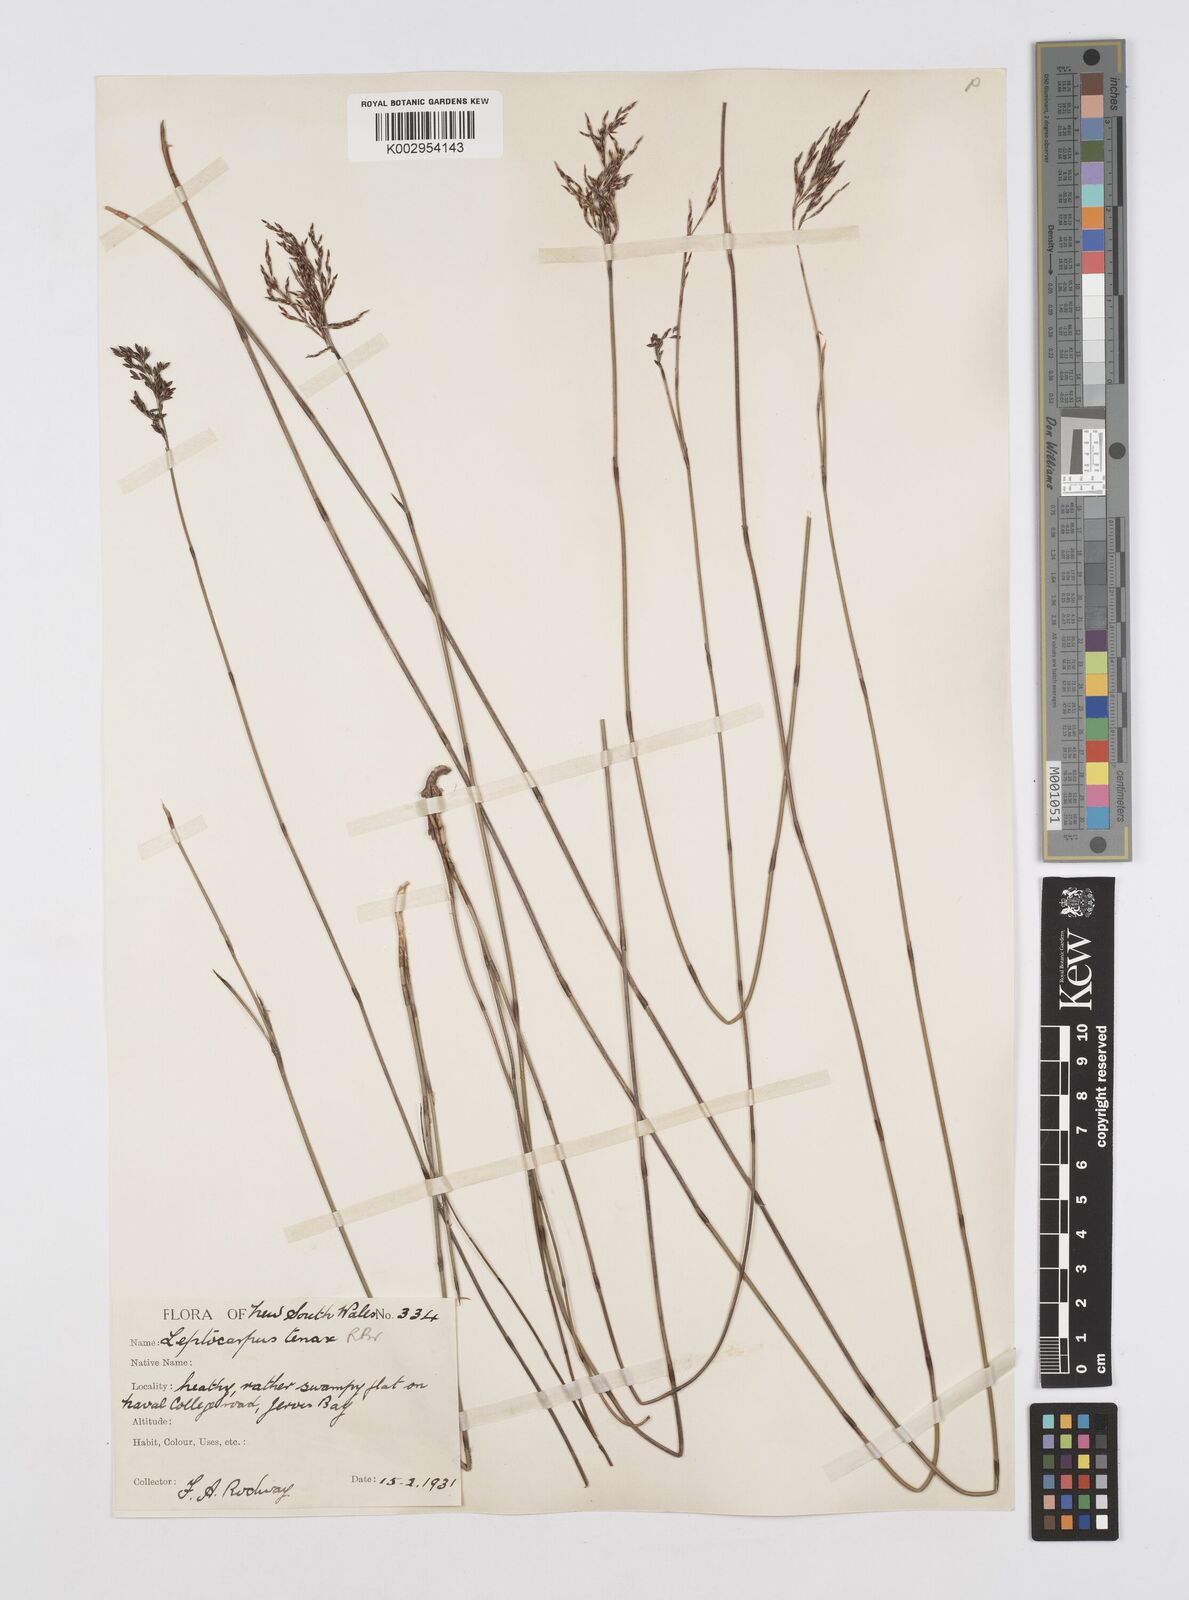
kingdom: Plantae
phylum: Tracheophyta
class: Liliopsida
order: Poales
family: Restionaceae
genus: Leptocarpus
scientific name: Leptocarpus tenax
